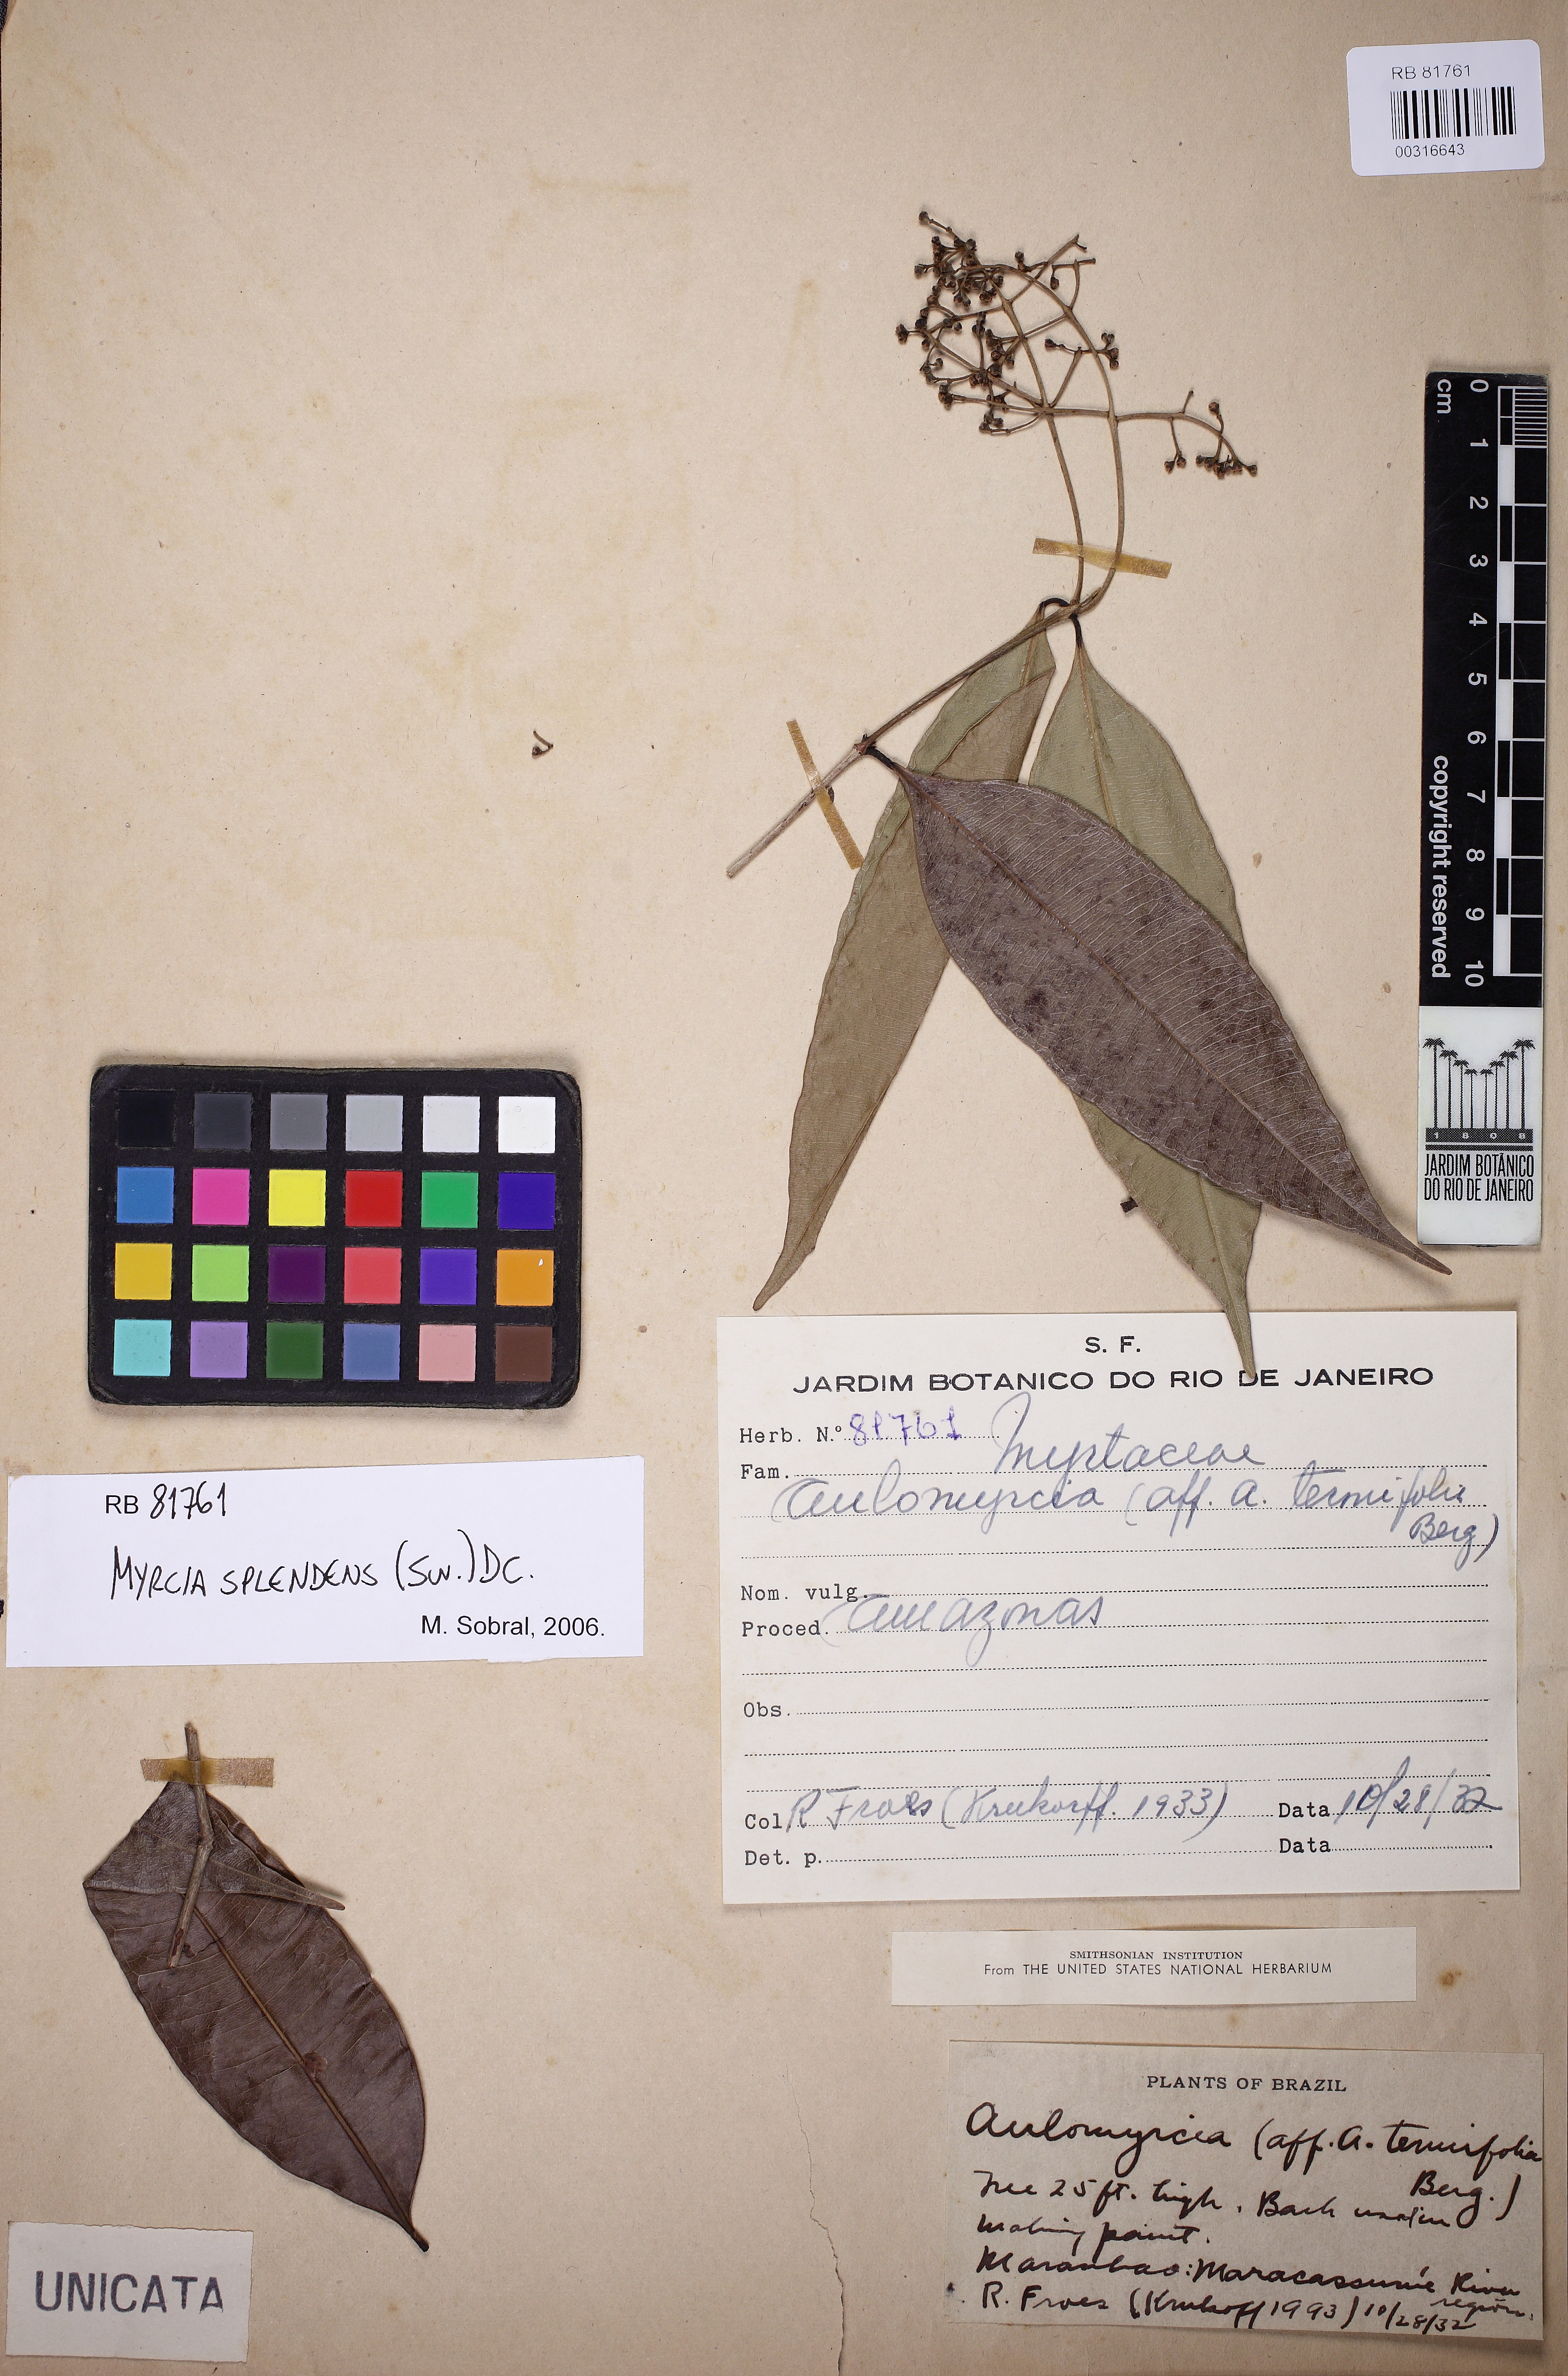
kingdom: Plantae
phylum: Tracheophyta
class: Magnoliopsida
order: Myrtales
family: Myrtaceae
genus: Myrcia
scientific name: Myrcia splendens
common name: Surinam cherry
